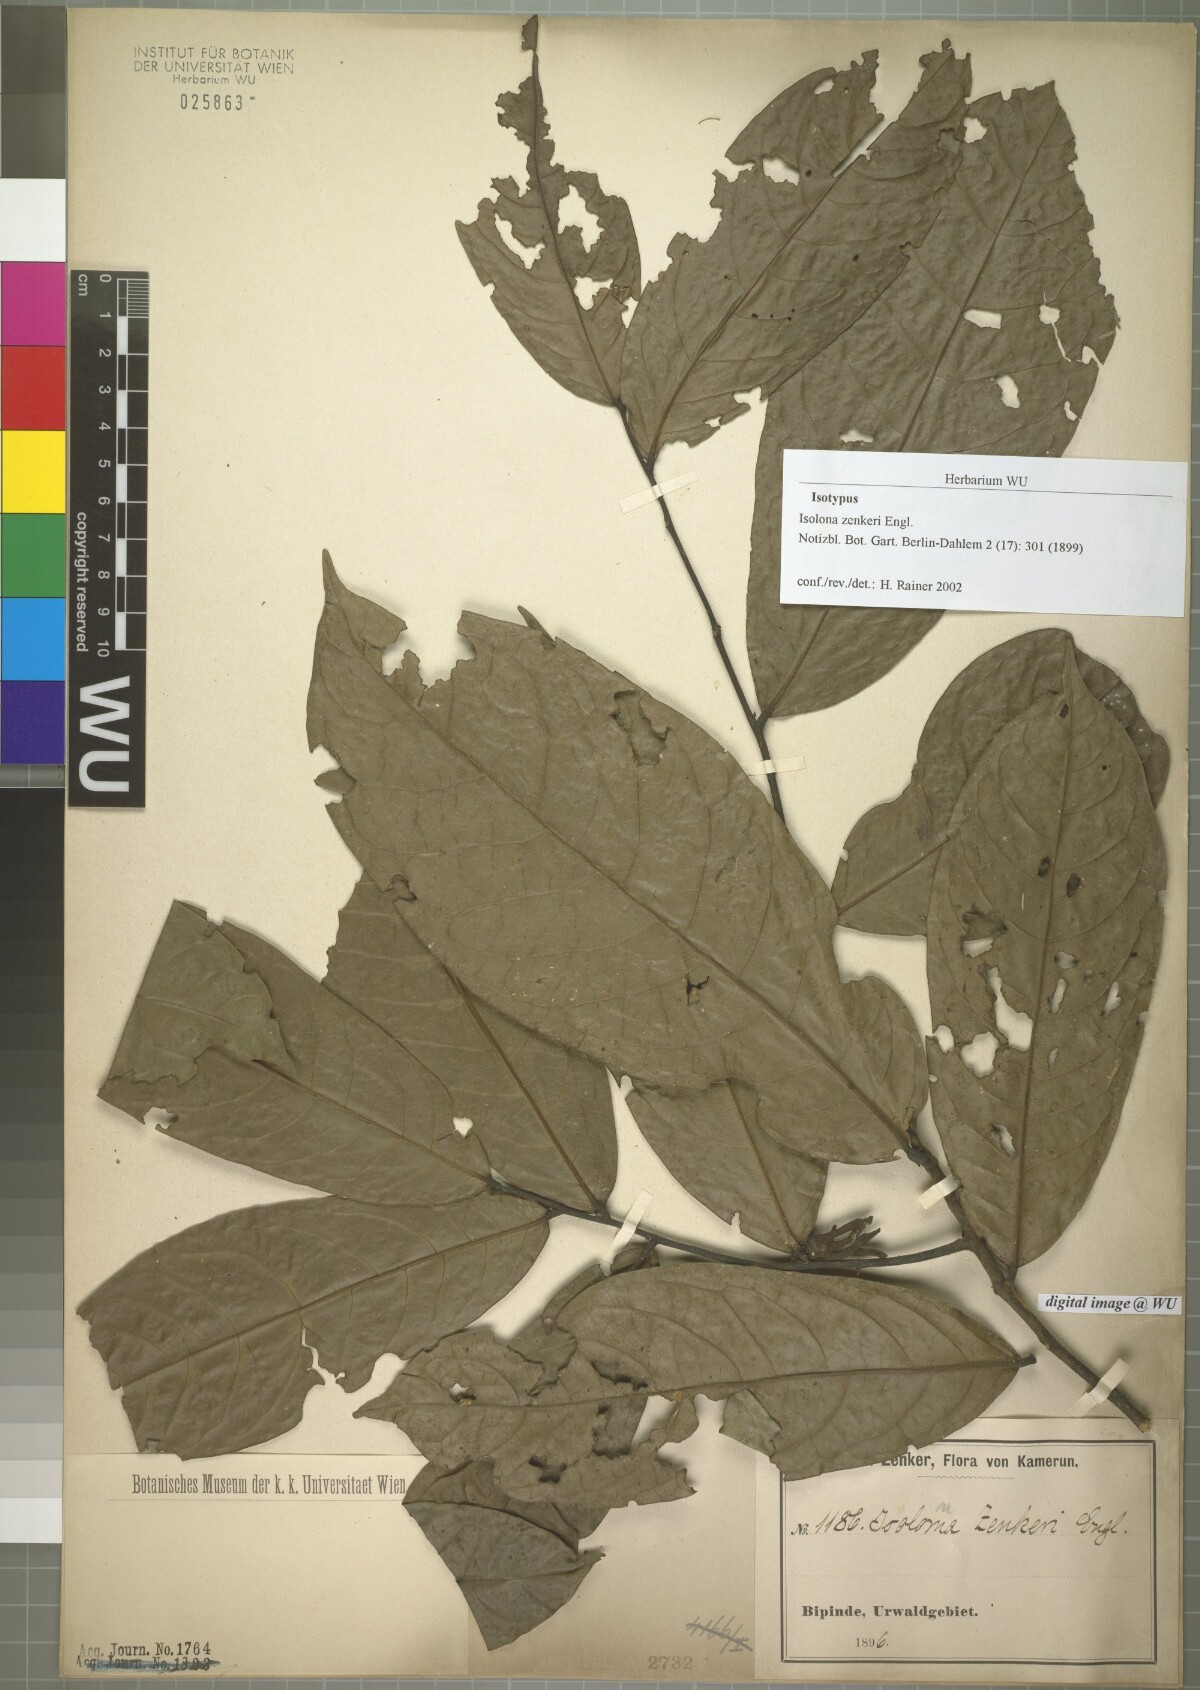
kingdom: Plantae
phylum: Tracheophyta
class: Magnoliopsida
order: Magnoliales
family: Annonaceae
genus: Isolona
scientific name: Isolona zenkeri
